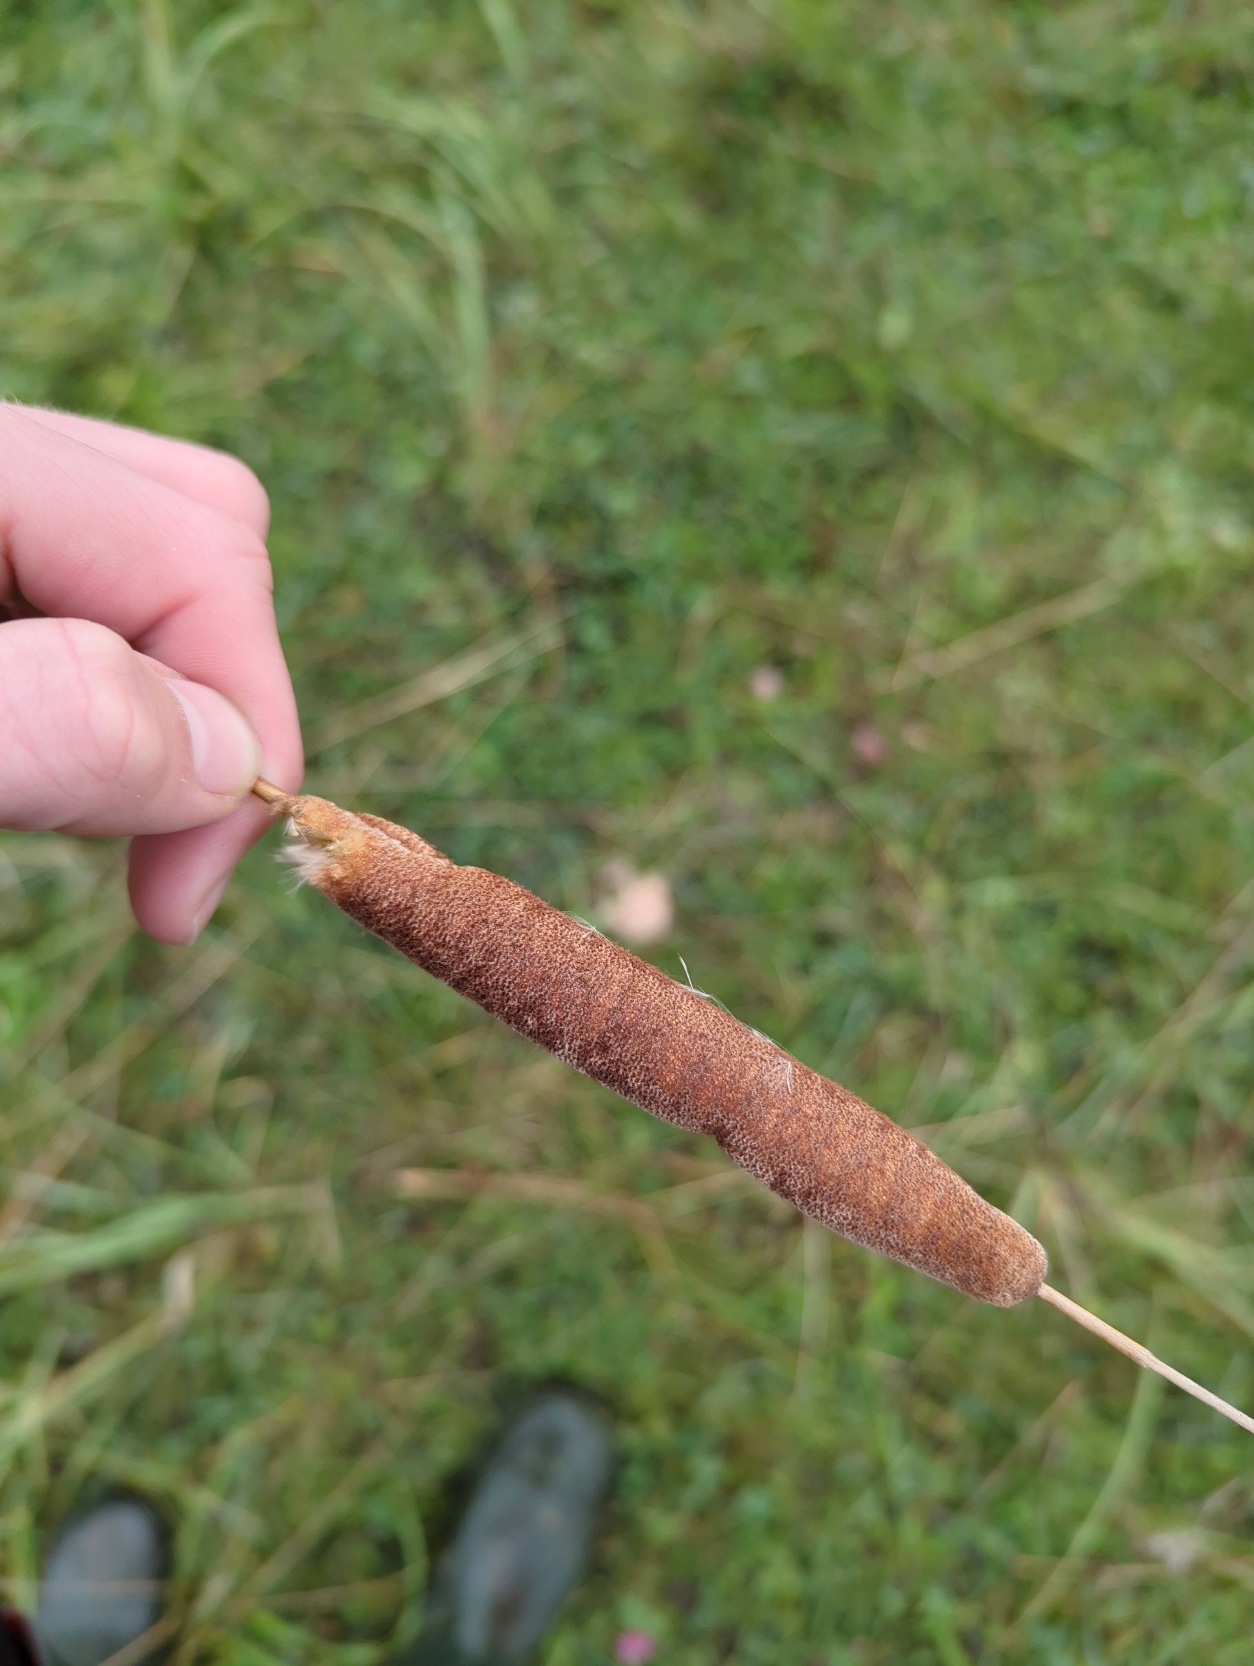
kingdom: Plantae
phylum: Tracheophyta
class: Liliopsida
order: Poales
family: Typhaceae
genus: Typha
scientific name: Typha angustifolia
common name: Smalbladet dunhammer
